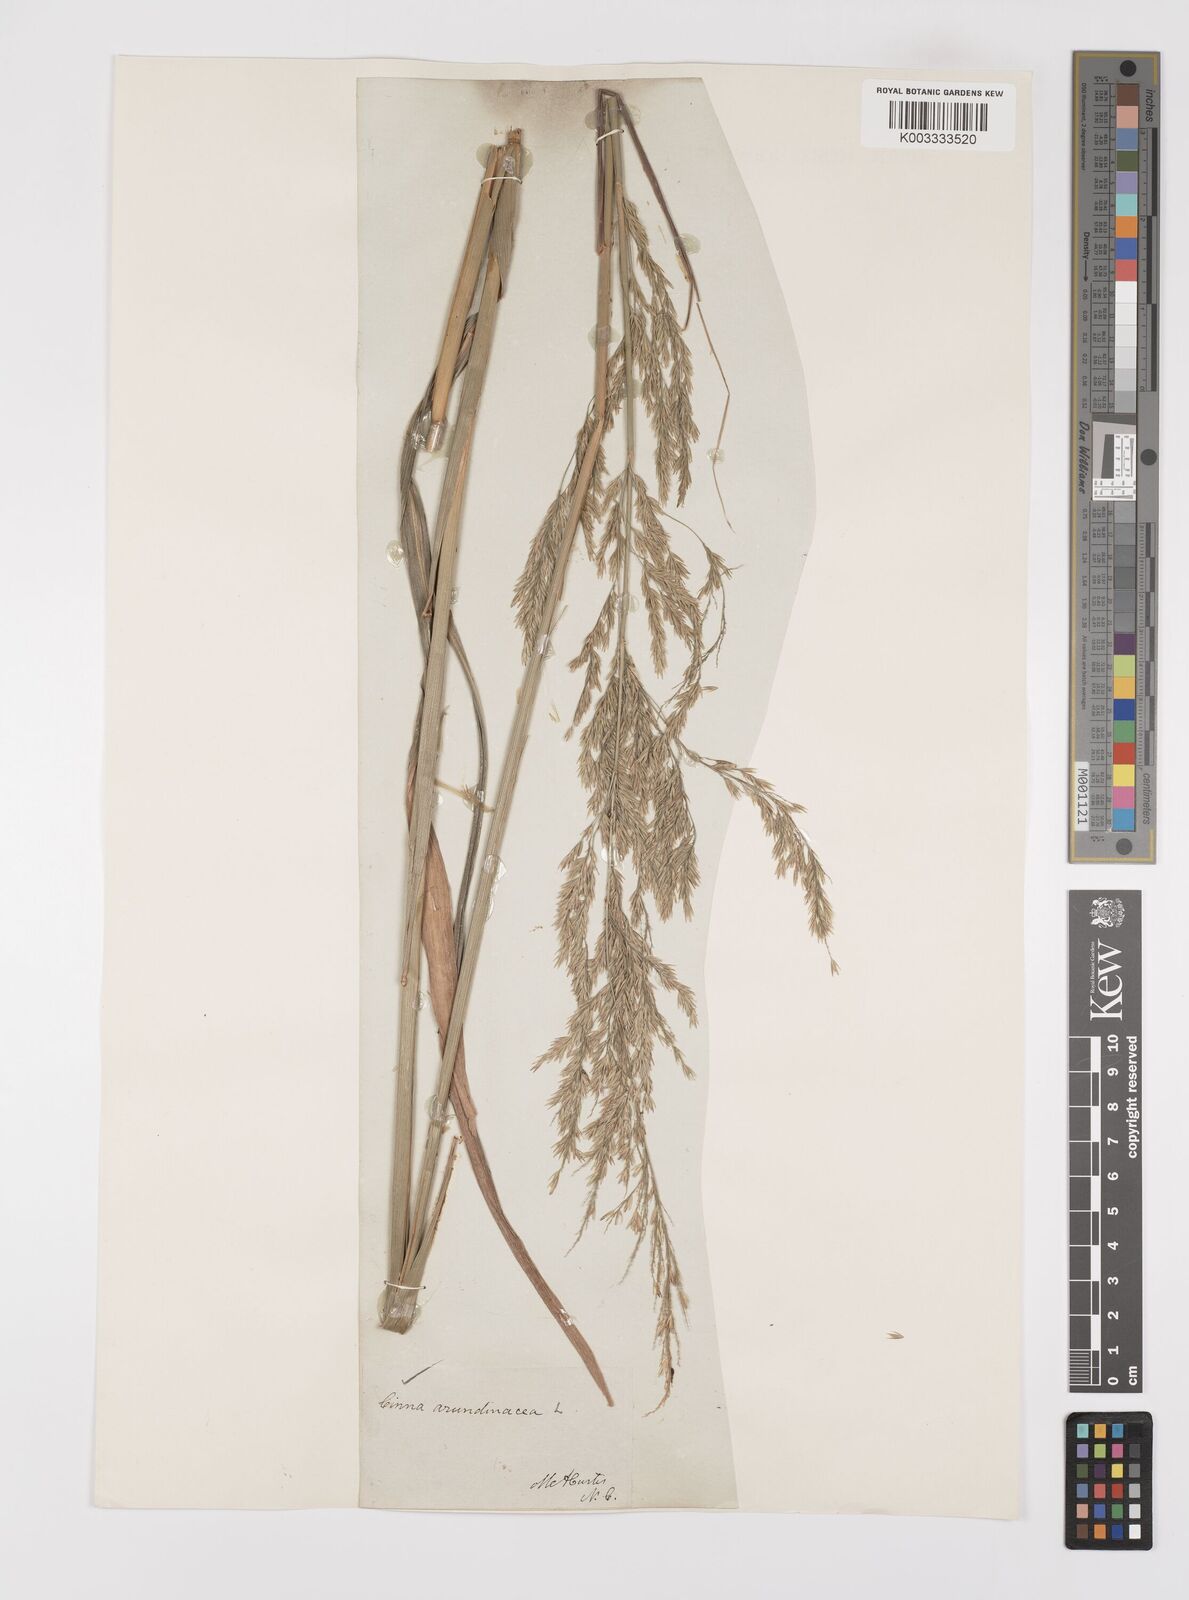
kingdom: Plantae
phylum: Tracheophyta
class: Liliopsida
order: Poales
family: Poaceae
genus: Cinna
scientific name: Cinna
